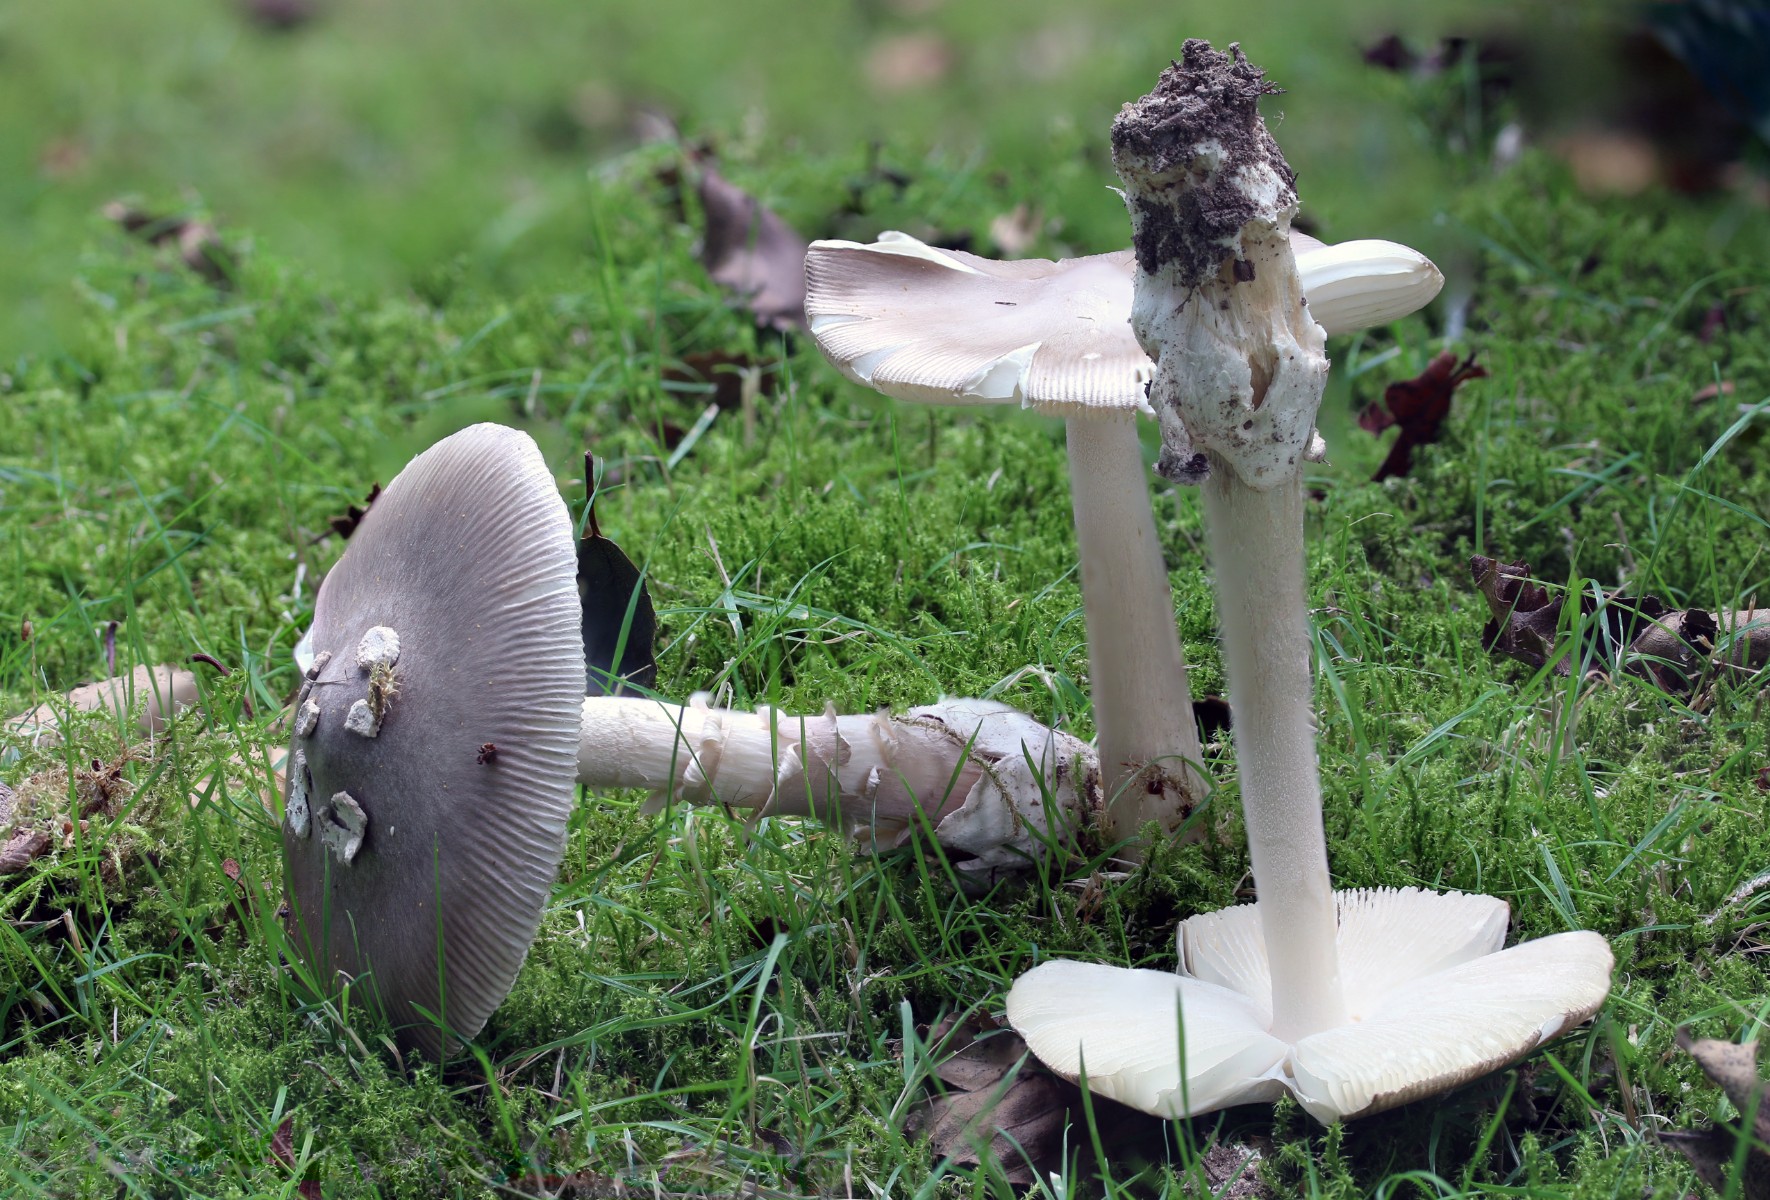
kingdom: Fungi
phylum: Basidiomycota
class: Agaricomycetes
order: Agaricales
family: Amanitaceae
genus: Amanita
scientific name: Amanita vaginata
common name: grå kam-fluesvamp
